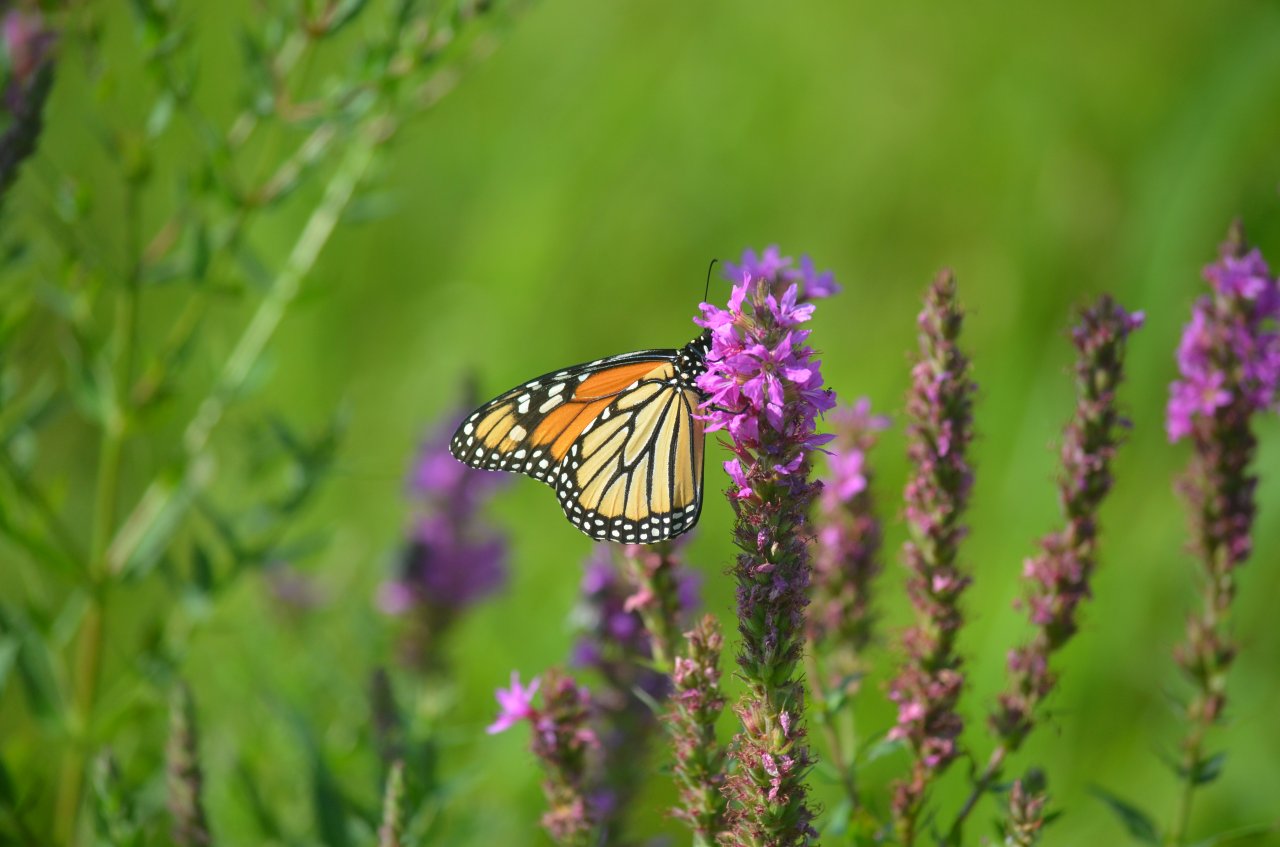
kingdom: Animalia
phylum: Arthropoda
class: Insecta
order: Lepidoptera
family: Nymphalidae
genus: Danaus
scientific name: Danaus plexippus
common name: Monarch
